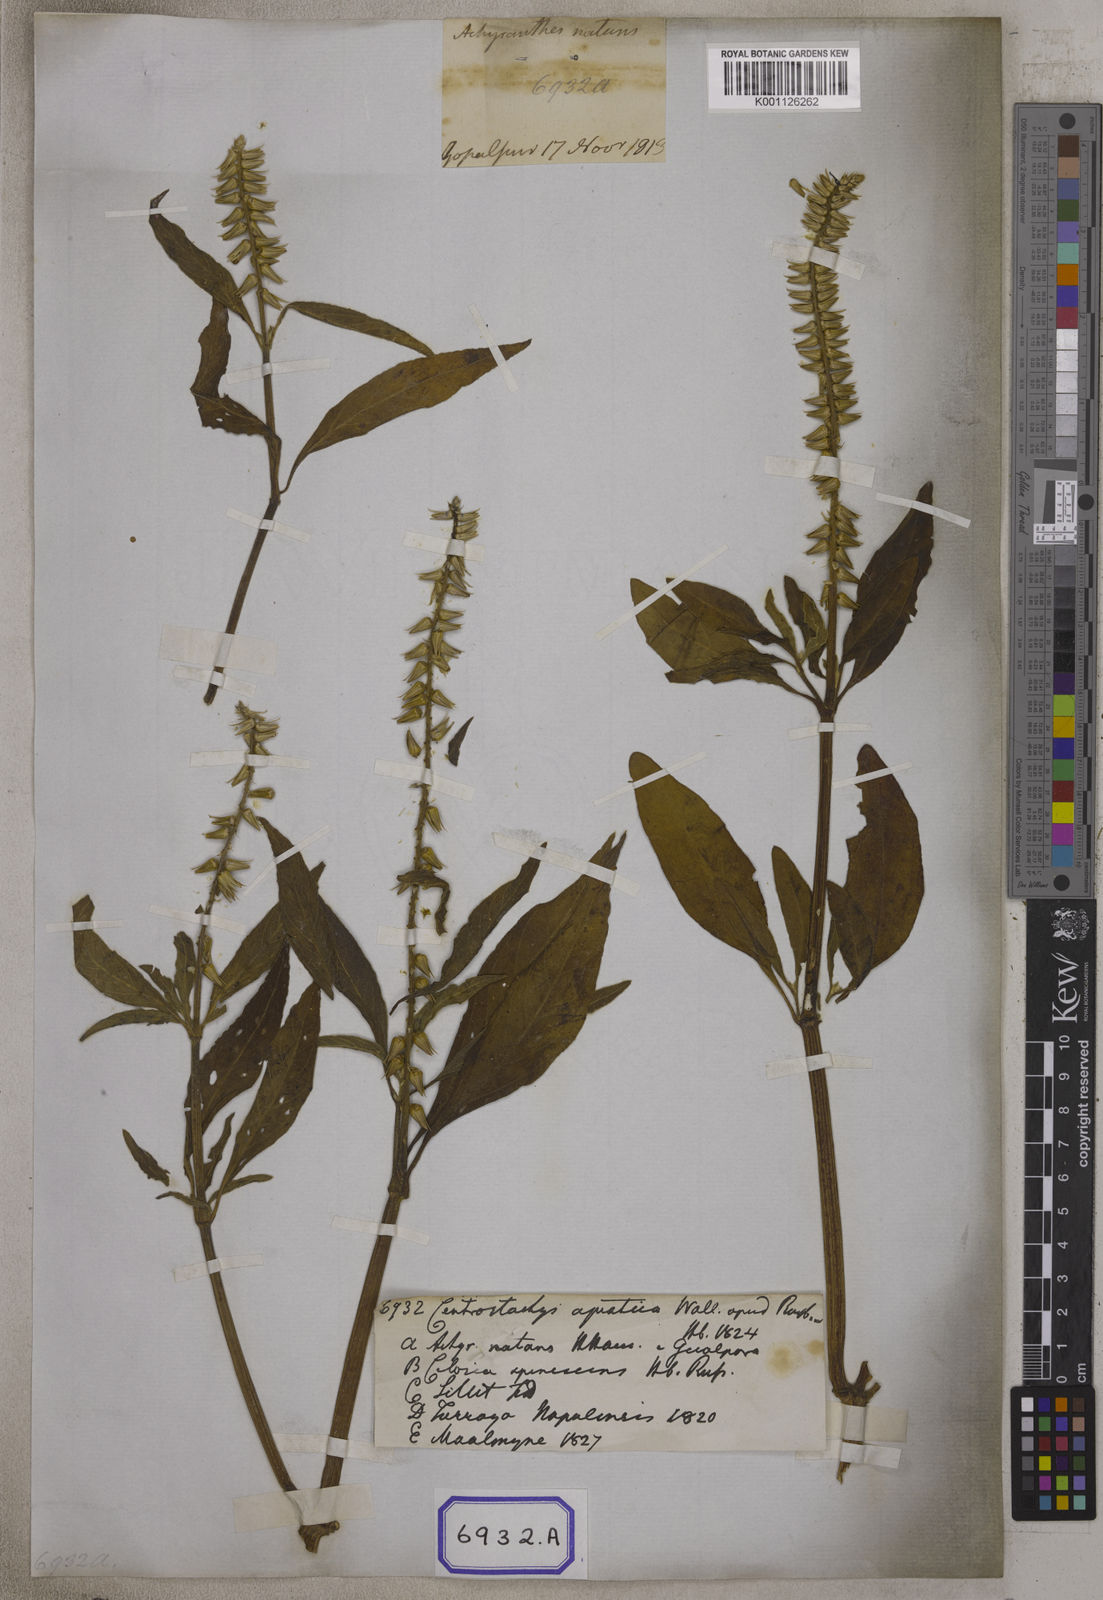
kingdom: Plantae
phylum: Tracheophyta
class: Magnoliopsida
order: Caryophyllales
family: Amaranthaceae
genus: Centrostachys
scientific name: Centrostachys
